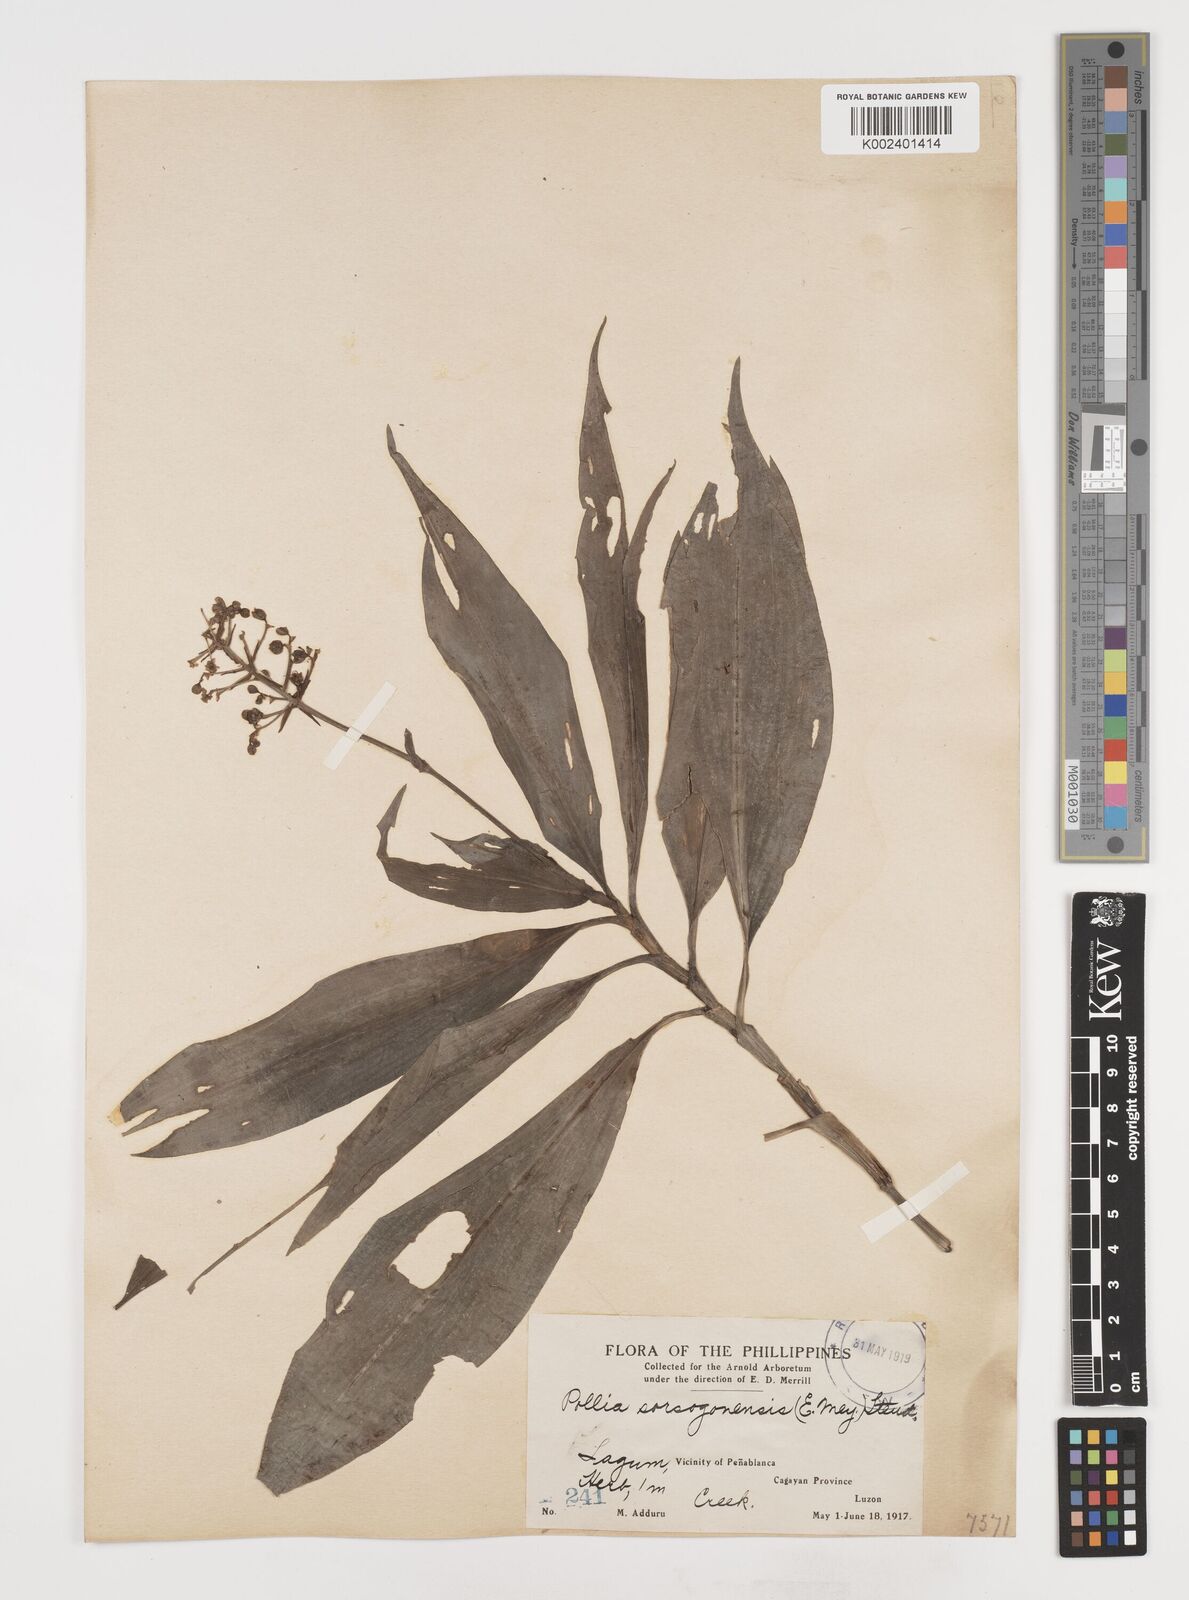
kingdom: Plantae
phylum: Tracheophyta
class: Liliopsida
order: Commelinales
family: Commelinaceae
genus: Pollia
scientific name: Pollia secundiflora
